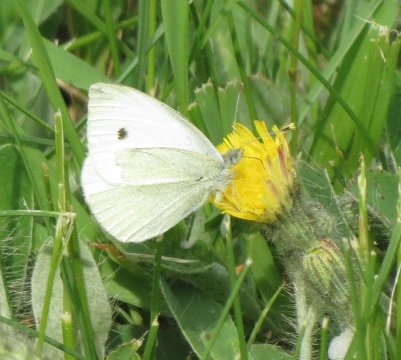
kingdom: Animalia
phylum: Arthropoda
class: Insecta
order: Lepidoptera
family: Pieridae
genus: Pieris
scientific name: Pieris rapae
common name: Cabbage White
